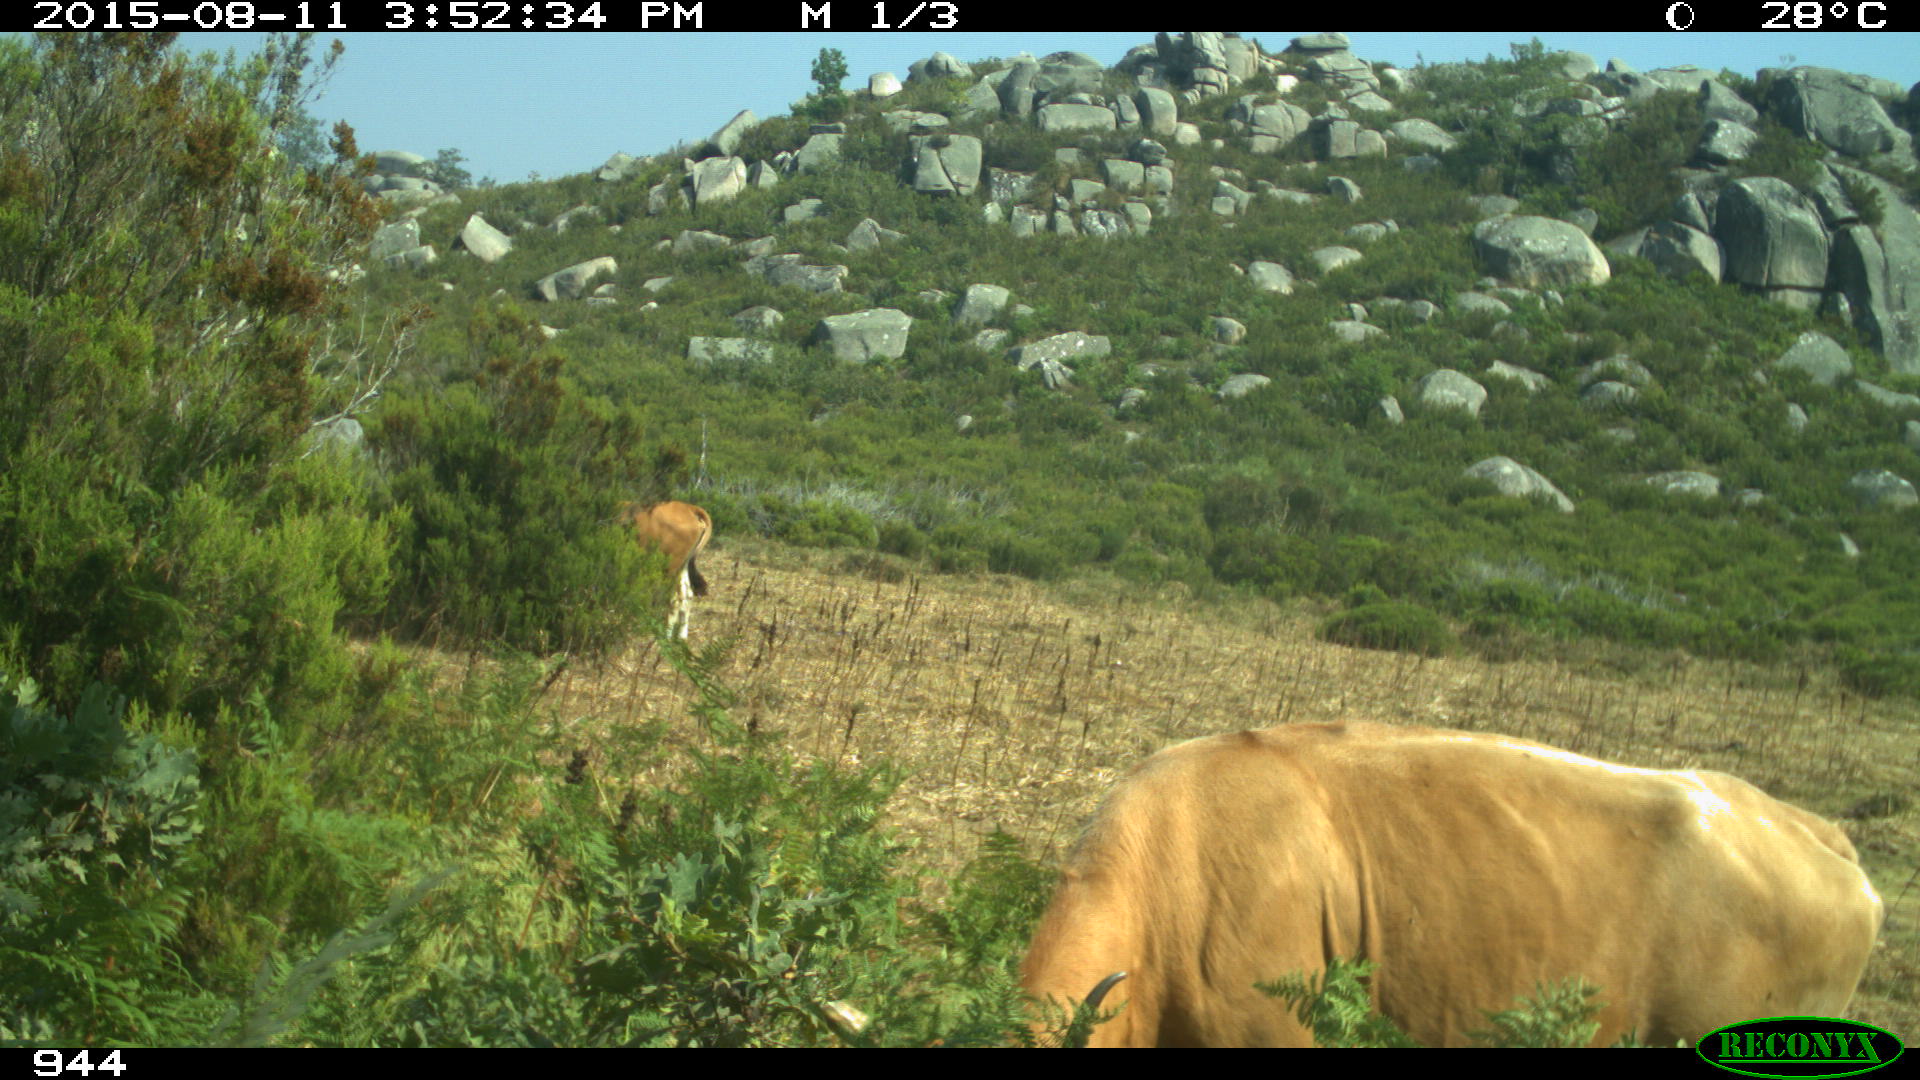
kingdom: Animalia
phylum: Chordata
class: Mammalia
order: Artiodactyla
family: Bovidae
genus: Bos
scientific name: Bos taurus
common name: Domesticated cattle
